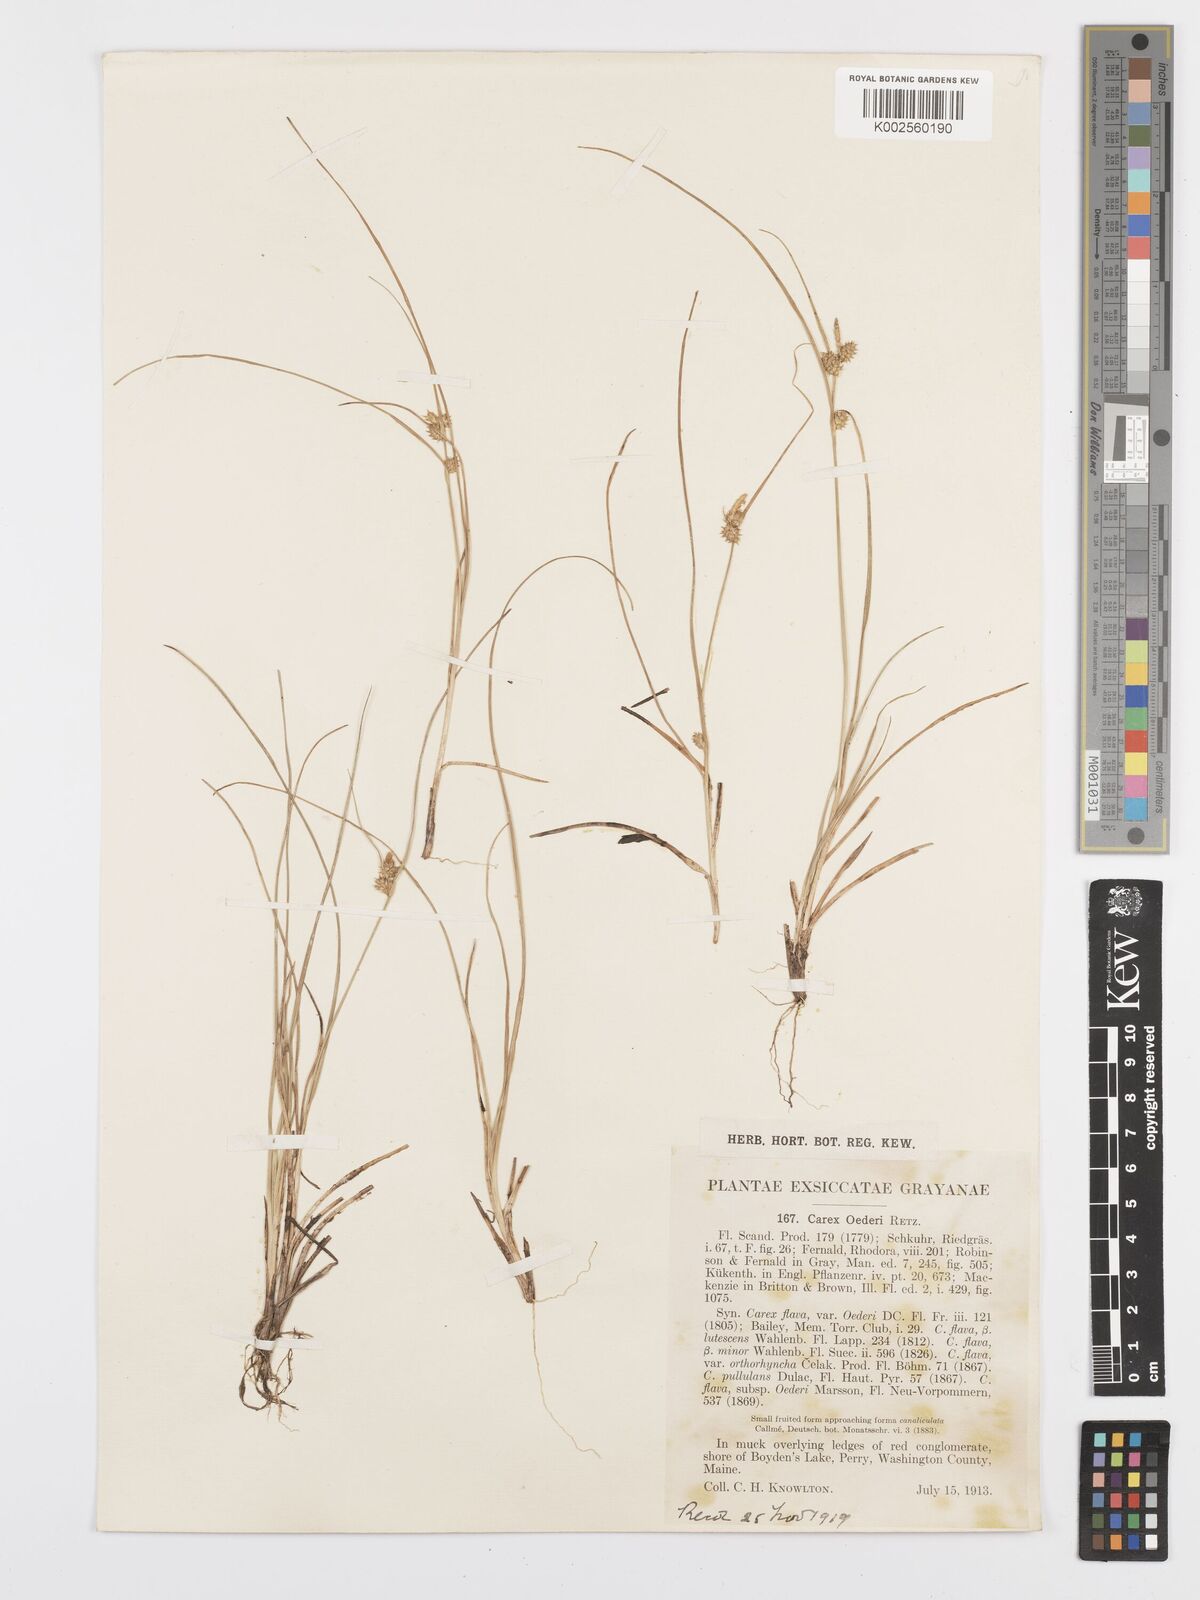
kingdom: Plantae
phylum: Tracheophyta
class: Liliopsida
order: Poales
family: Cyperaceae
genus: Carex
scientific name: Carex oederi
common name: Common & small-fruited yellow-sedge
